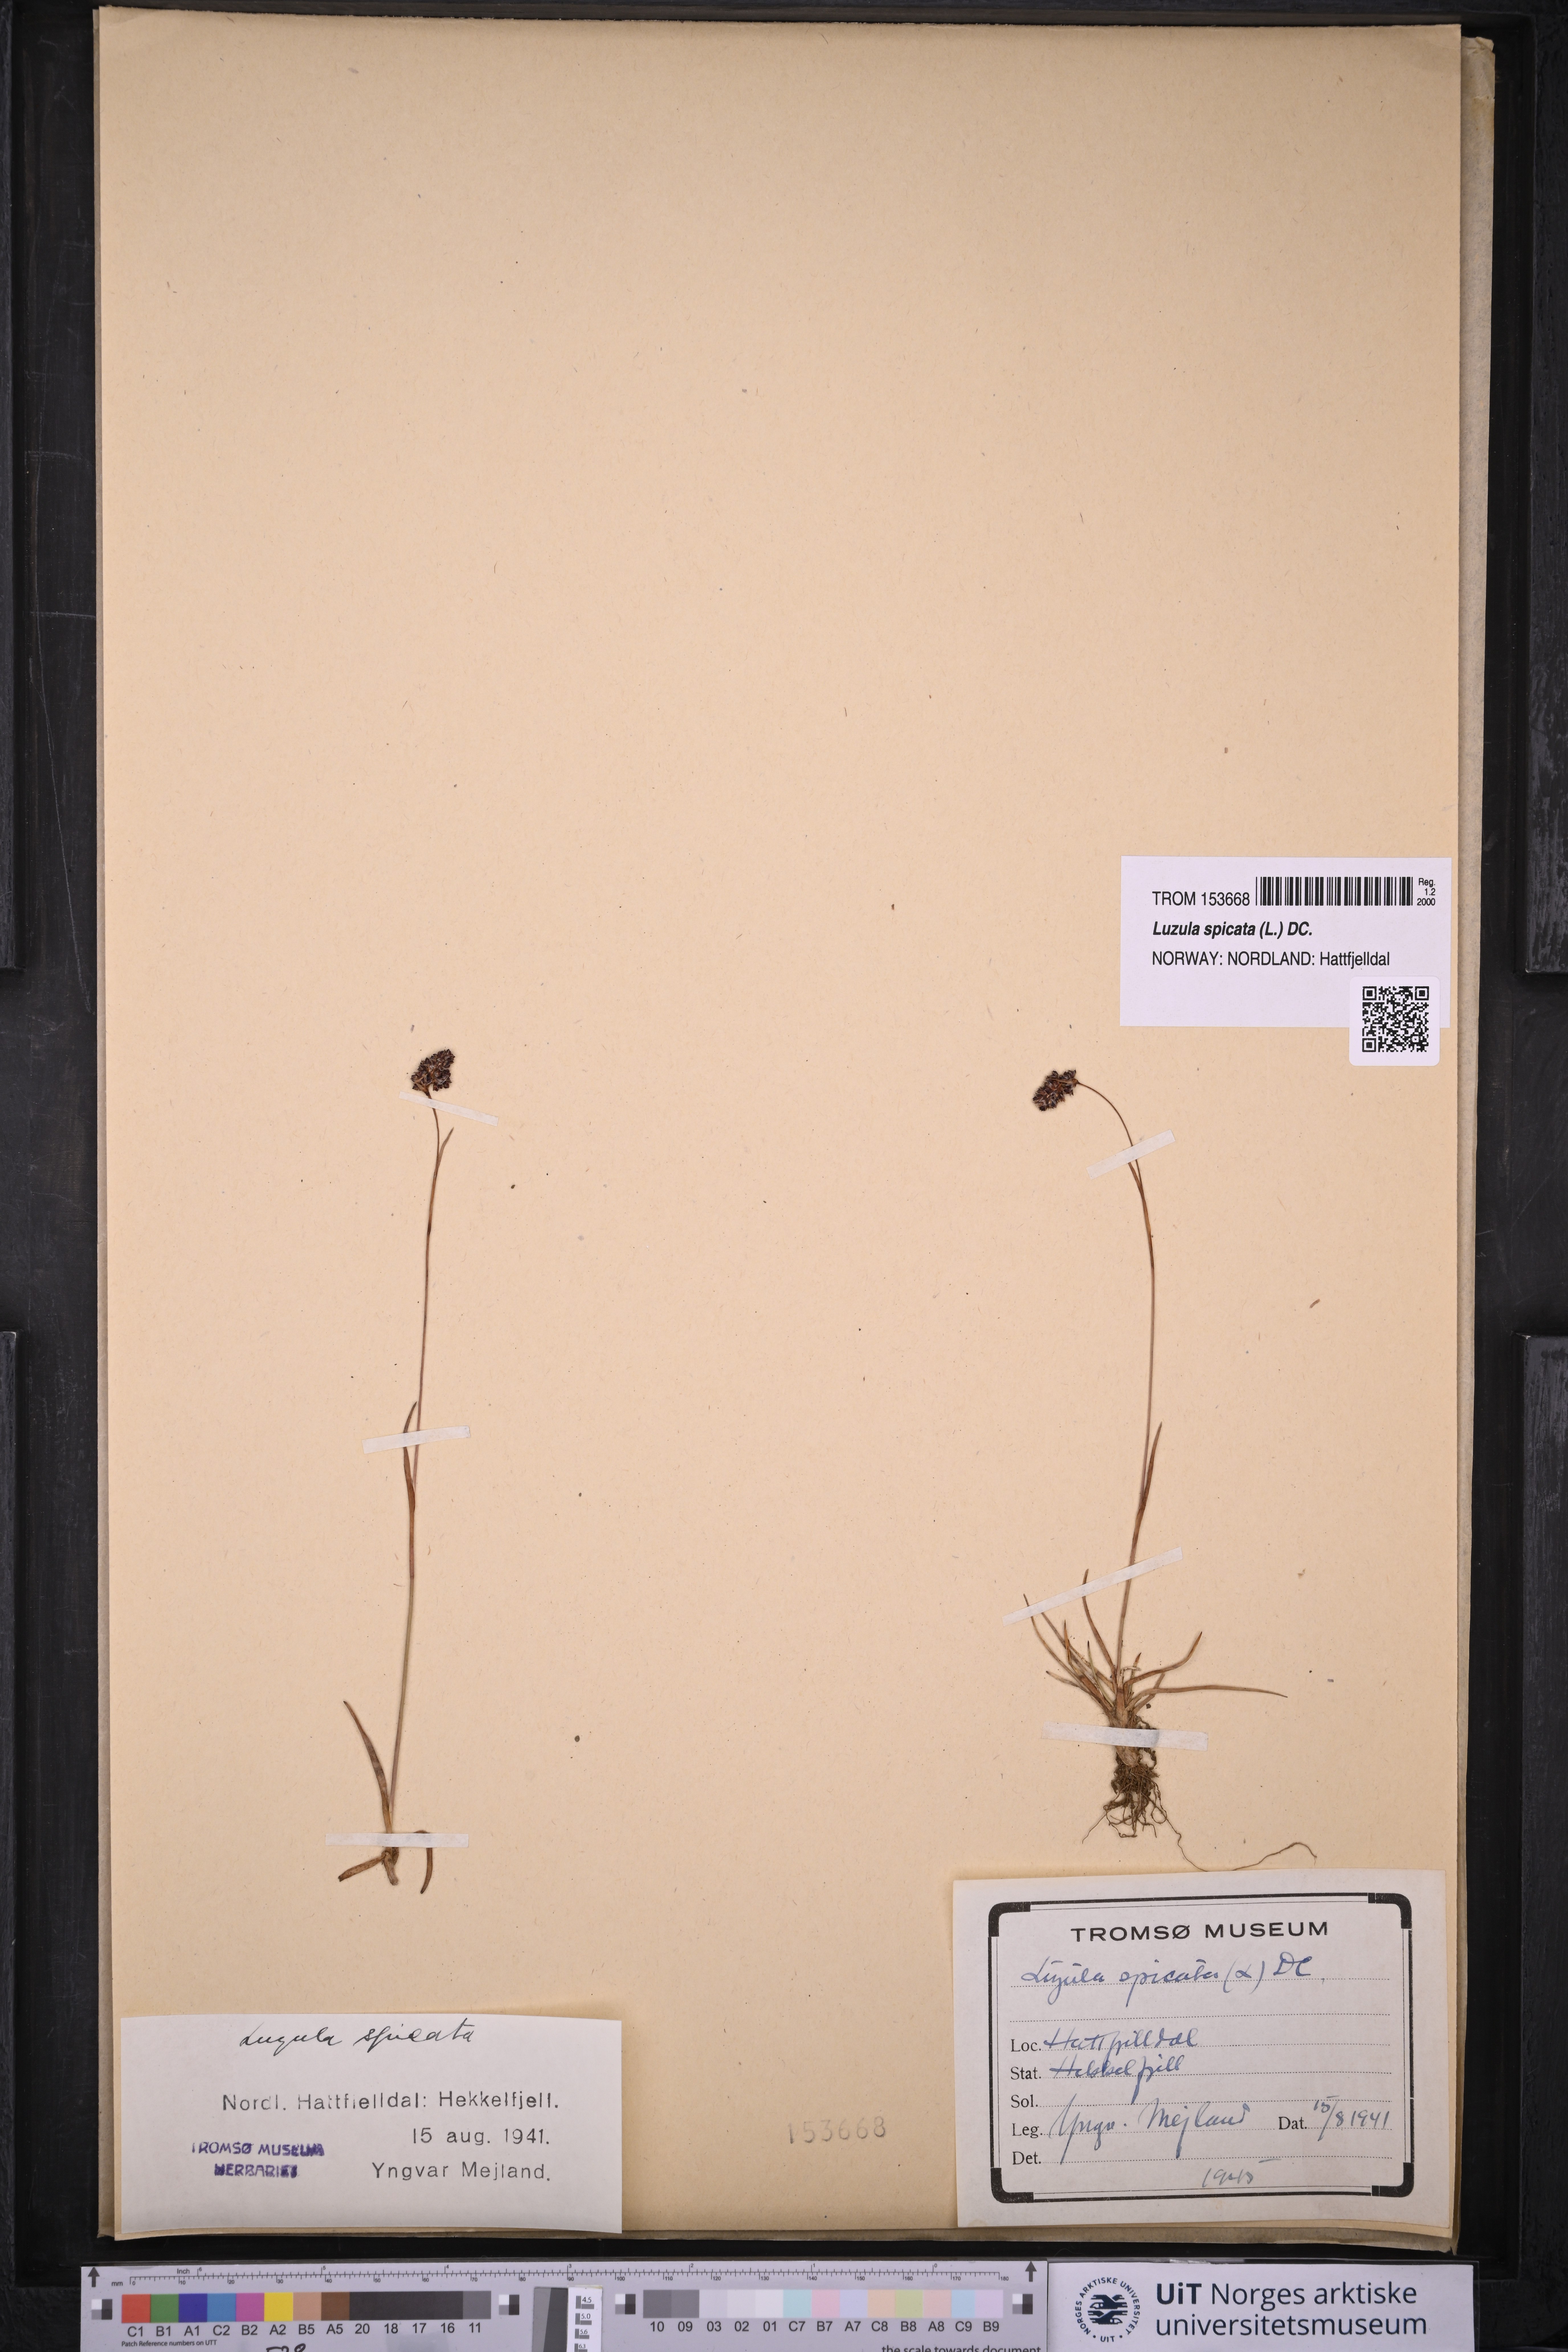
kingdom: Plantae
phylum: Tracheophyta
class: Liliopsida
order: Poales
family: Juncaceae
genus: Luzula
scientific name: Luzula spicata
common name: Spiked wood-rush
